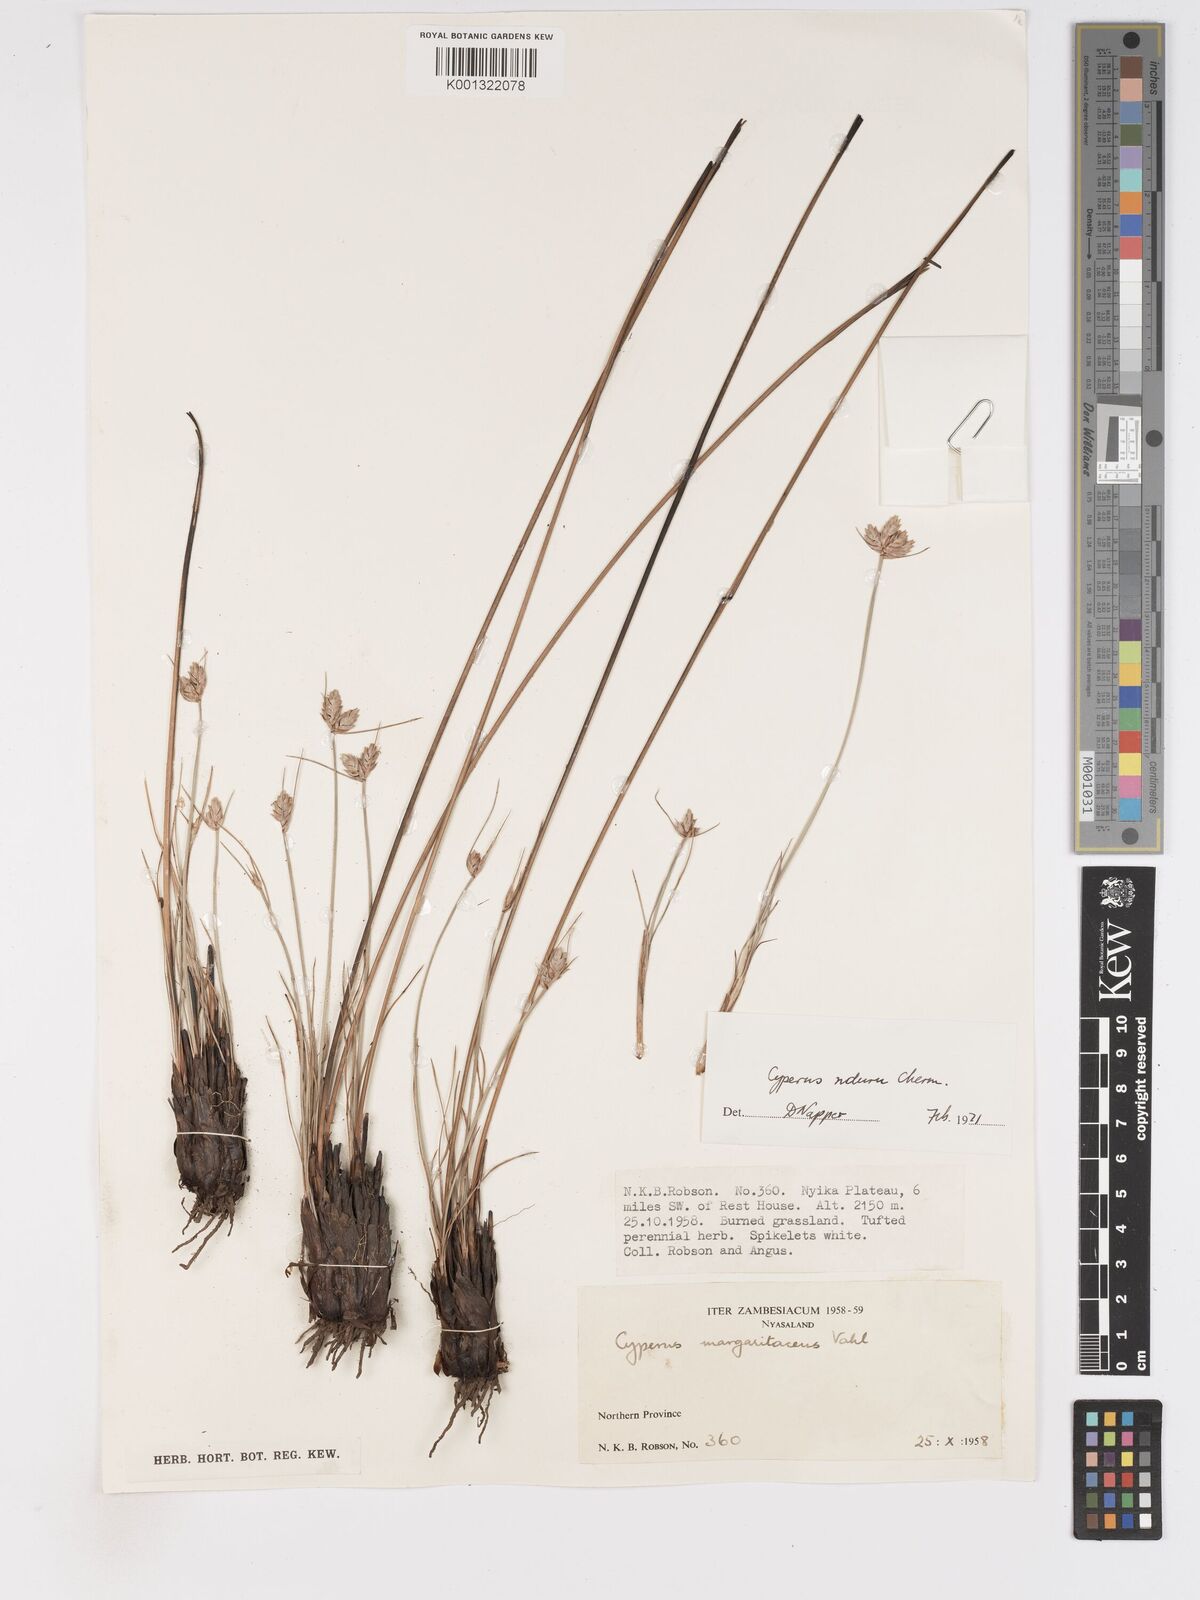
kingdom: Plantae
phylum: Tracheophyta
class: Liliopsida
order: Poales
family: Cyperaceae
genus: Cyperus
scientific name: Cyperus nduru
